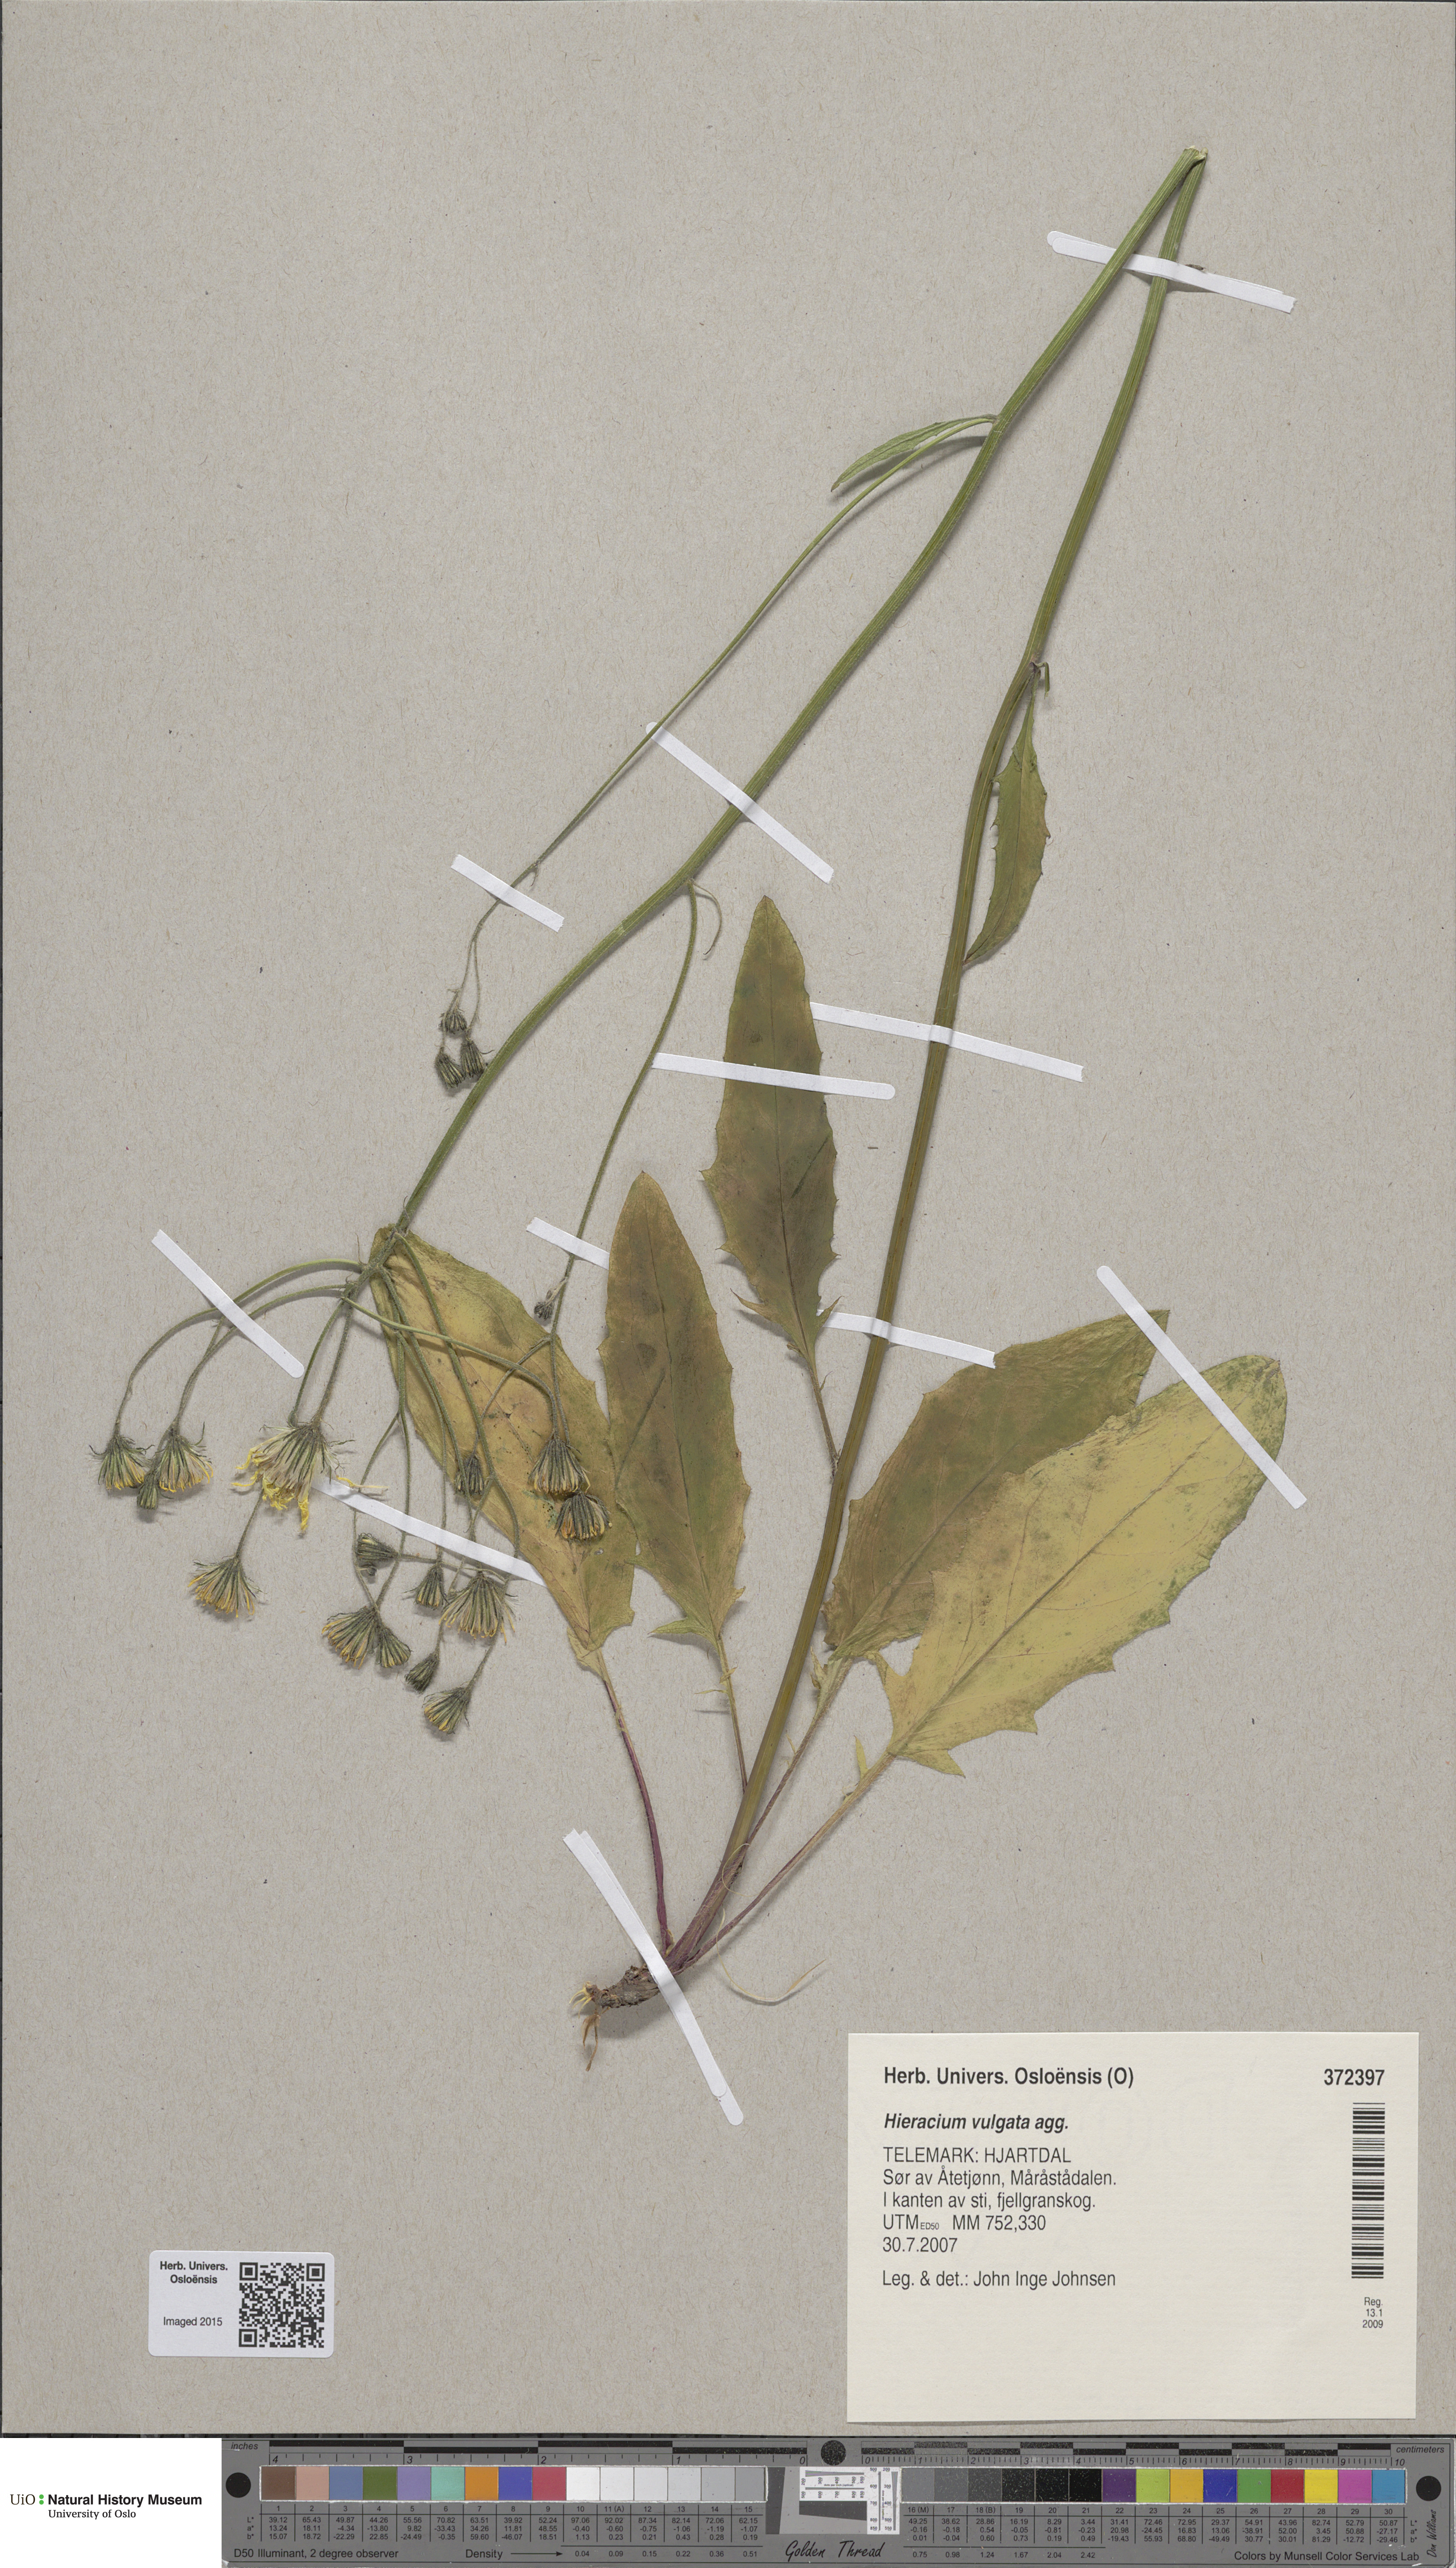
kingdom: Plantae
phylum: Tracheophyta
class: Magnoliopsida
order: Asterales
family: Asteraceae
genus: Hieracium
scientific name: Hieracium vulgatum
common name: Common hawkweed
